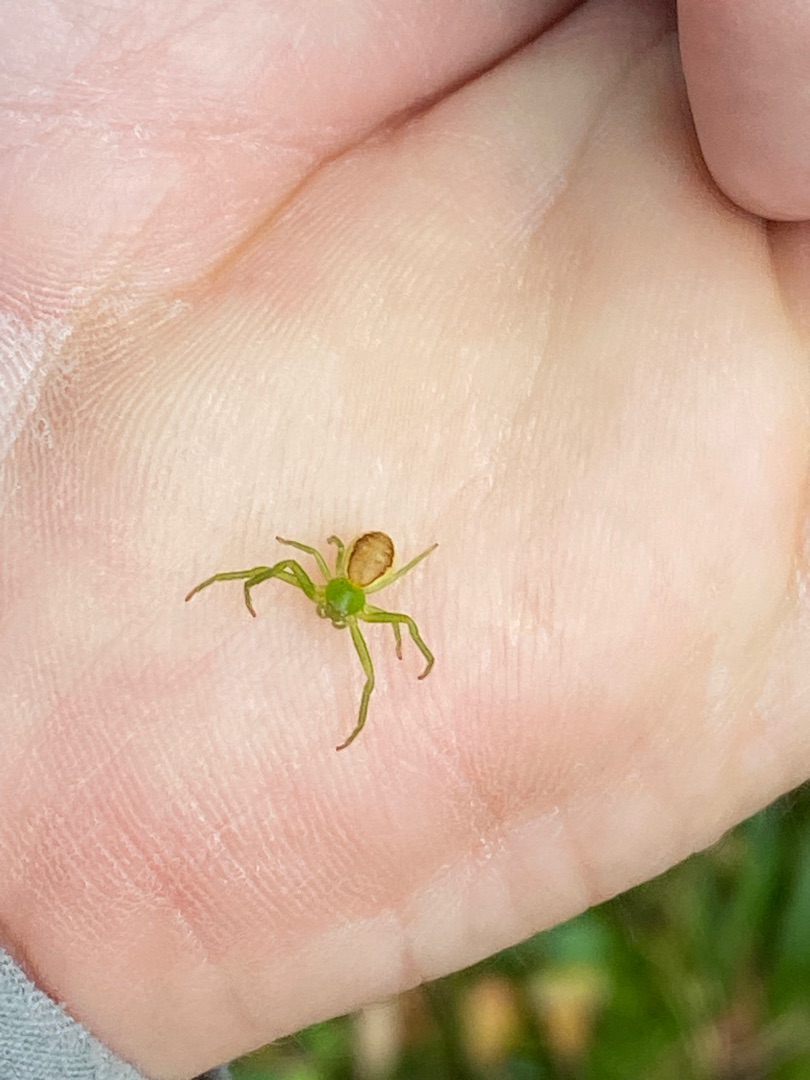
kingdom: Animalia
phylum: Arthropoda
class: Arachnida
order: Araneae
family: Thomisidae
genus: Diaea
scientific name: Diaea dorsata
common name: Grøn krabbeedderkop
